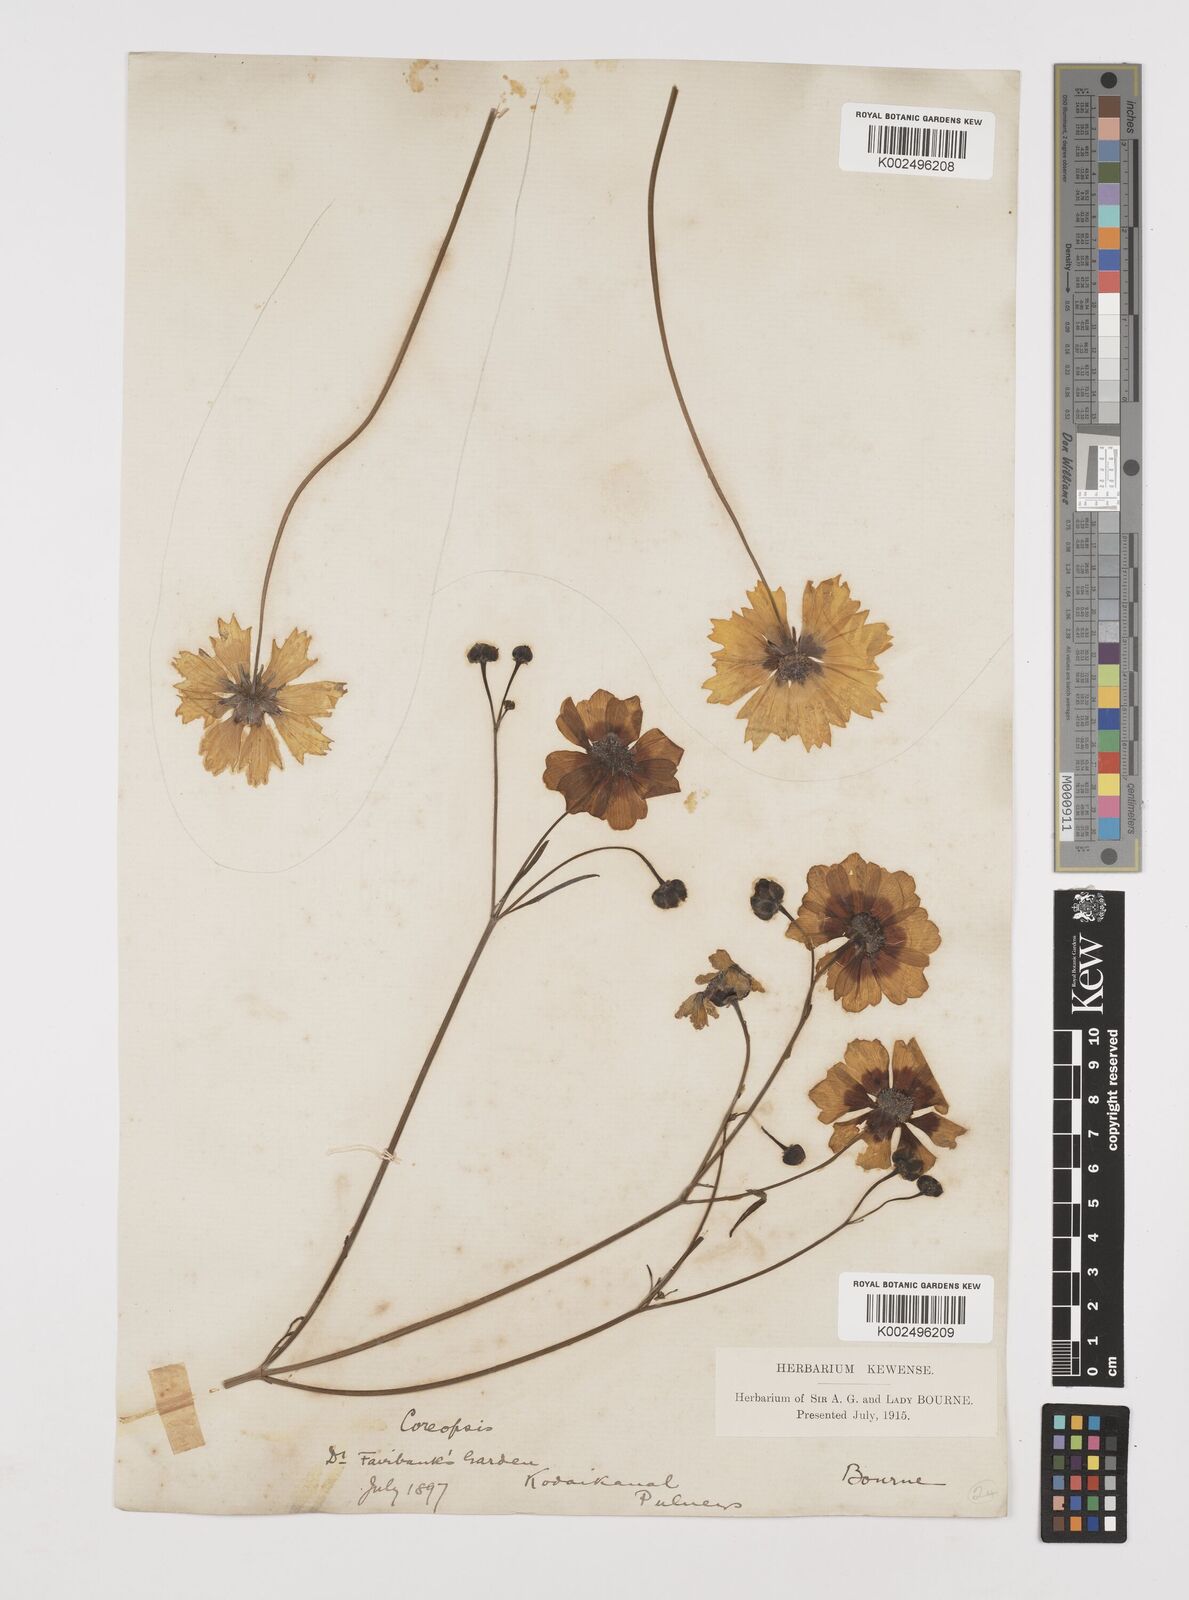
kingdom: Plantae
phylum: Tracheophyta
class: Magnoliopsida
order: Asterales
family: Asteraceae
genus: Coreopsis
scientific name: Coreopsis tinctoria
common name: Garden tickseed
